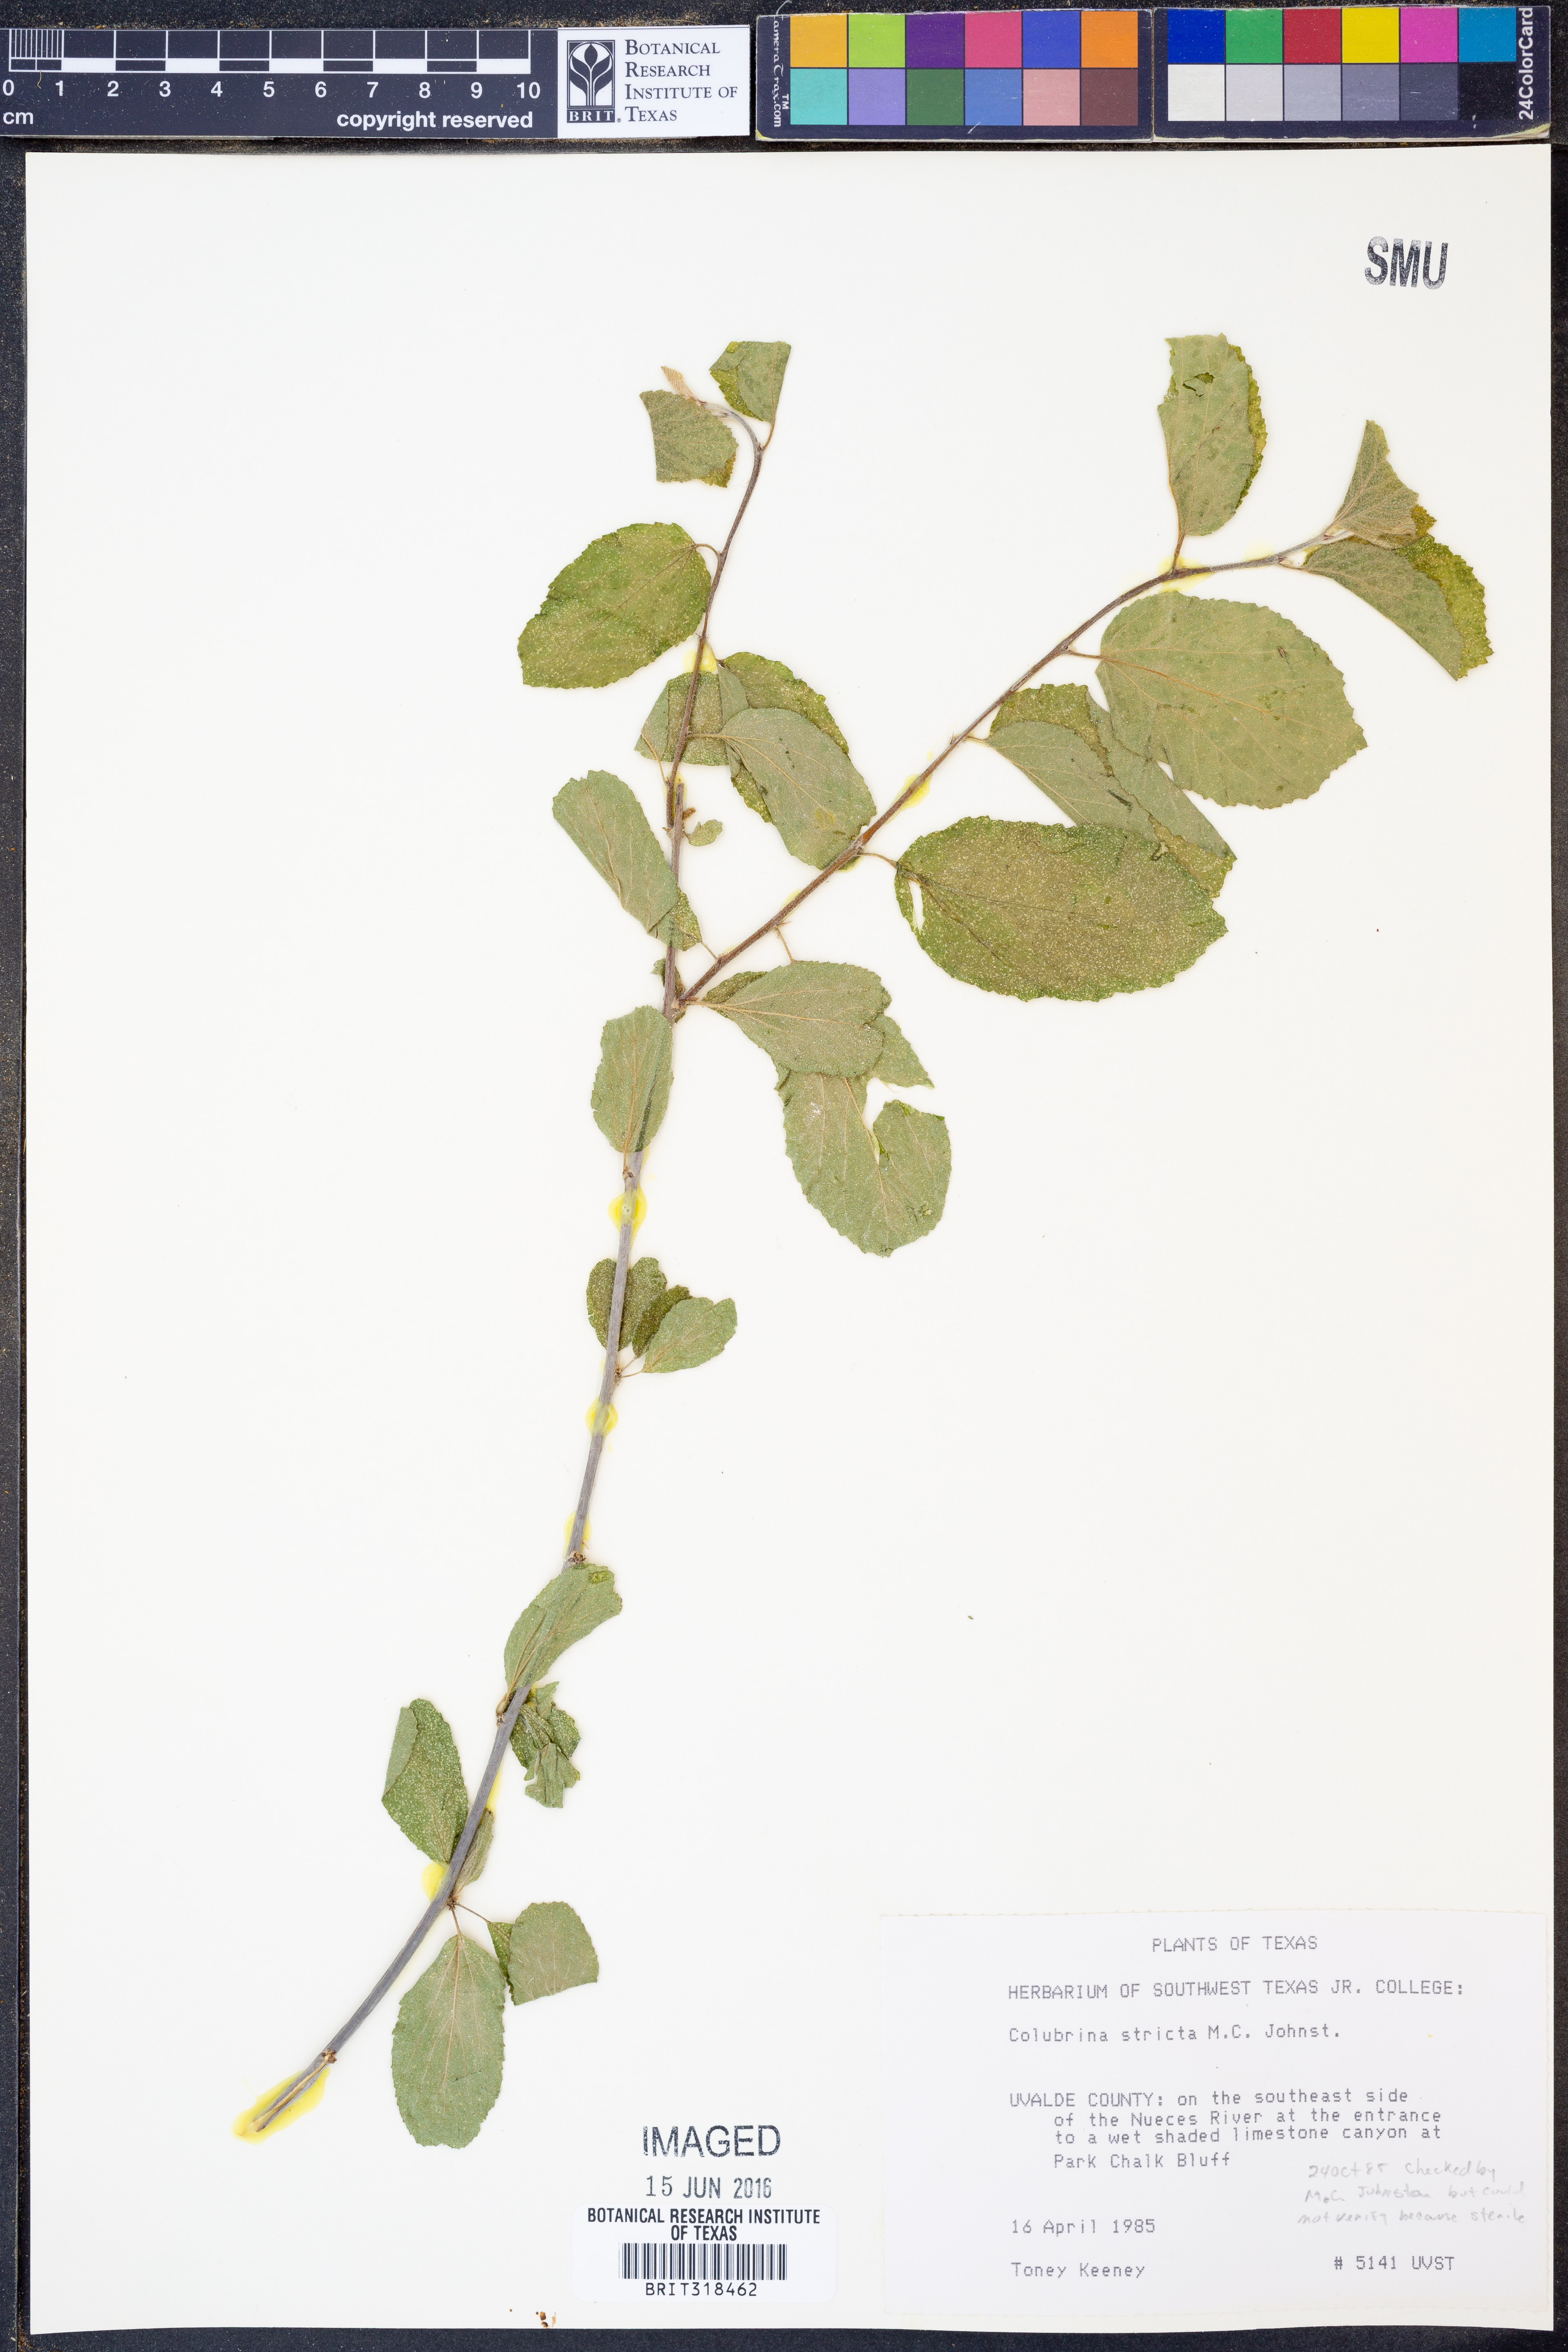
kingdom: Plantae
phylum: Tracheophyta
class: Magnoliopsida
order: Rosales
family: Rhamnaceae
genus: Colubrina
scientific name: Colubrina stricta
